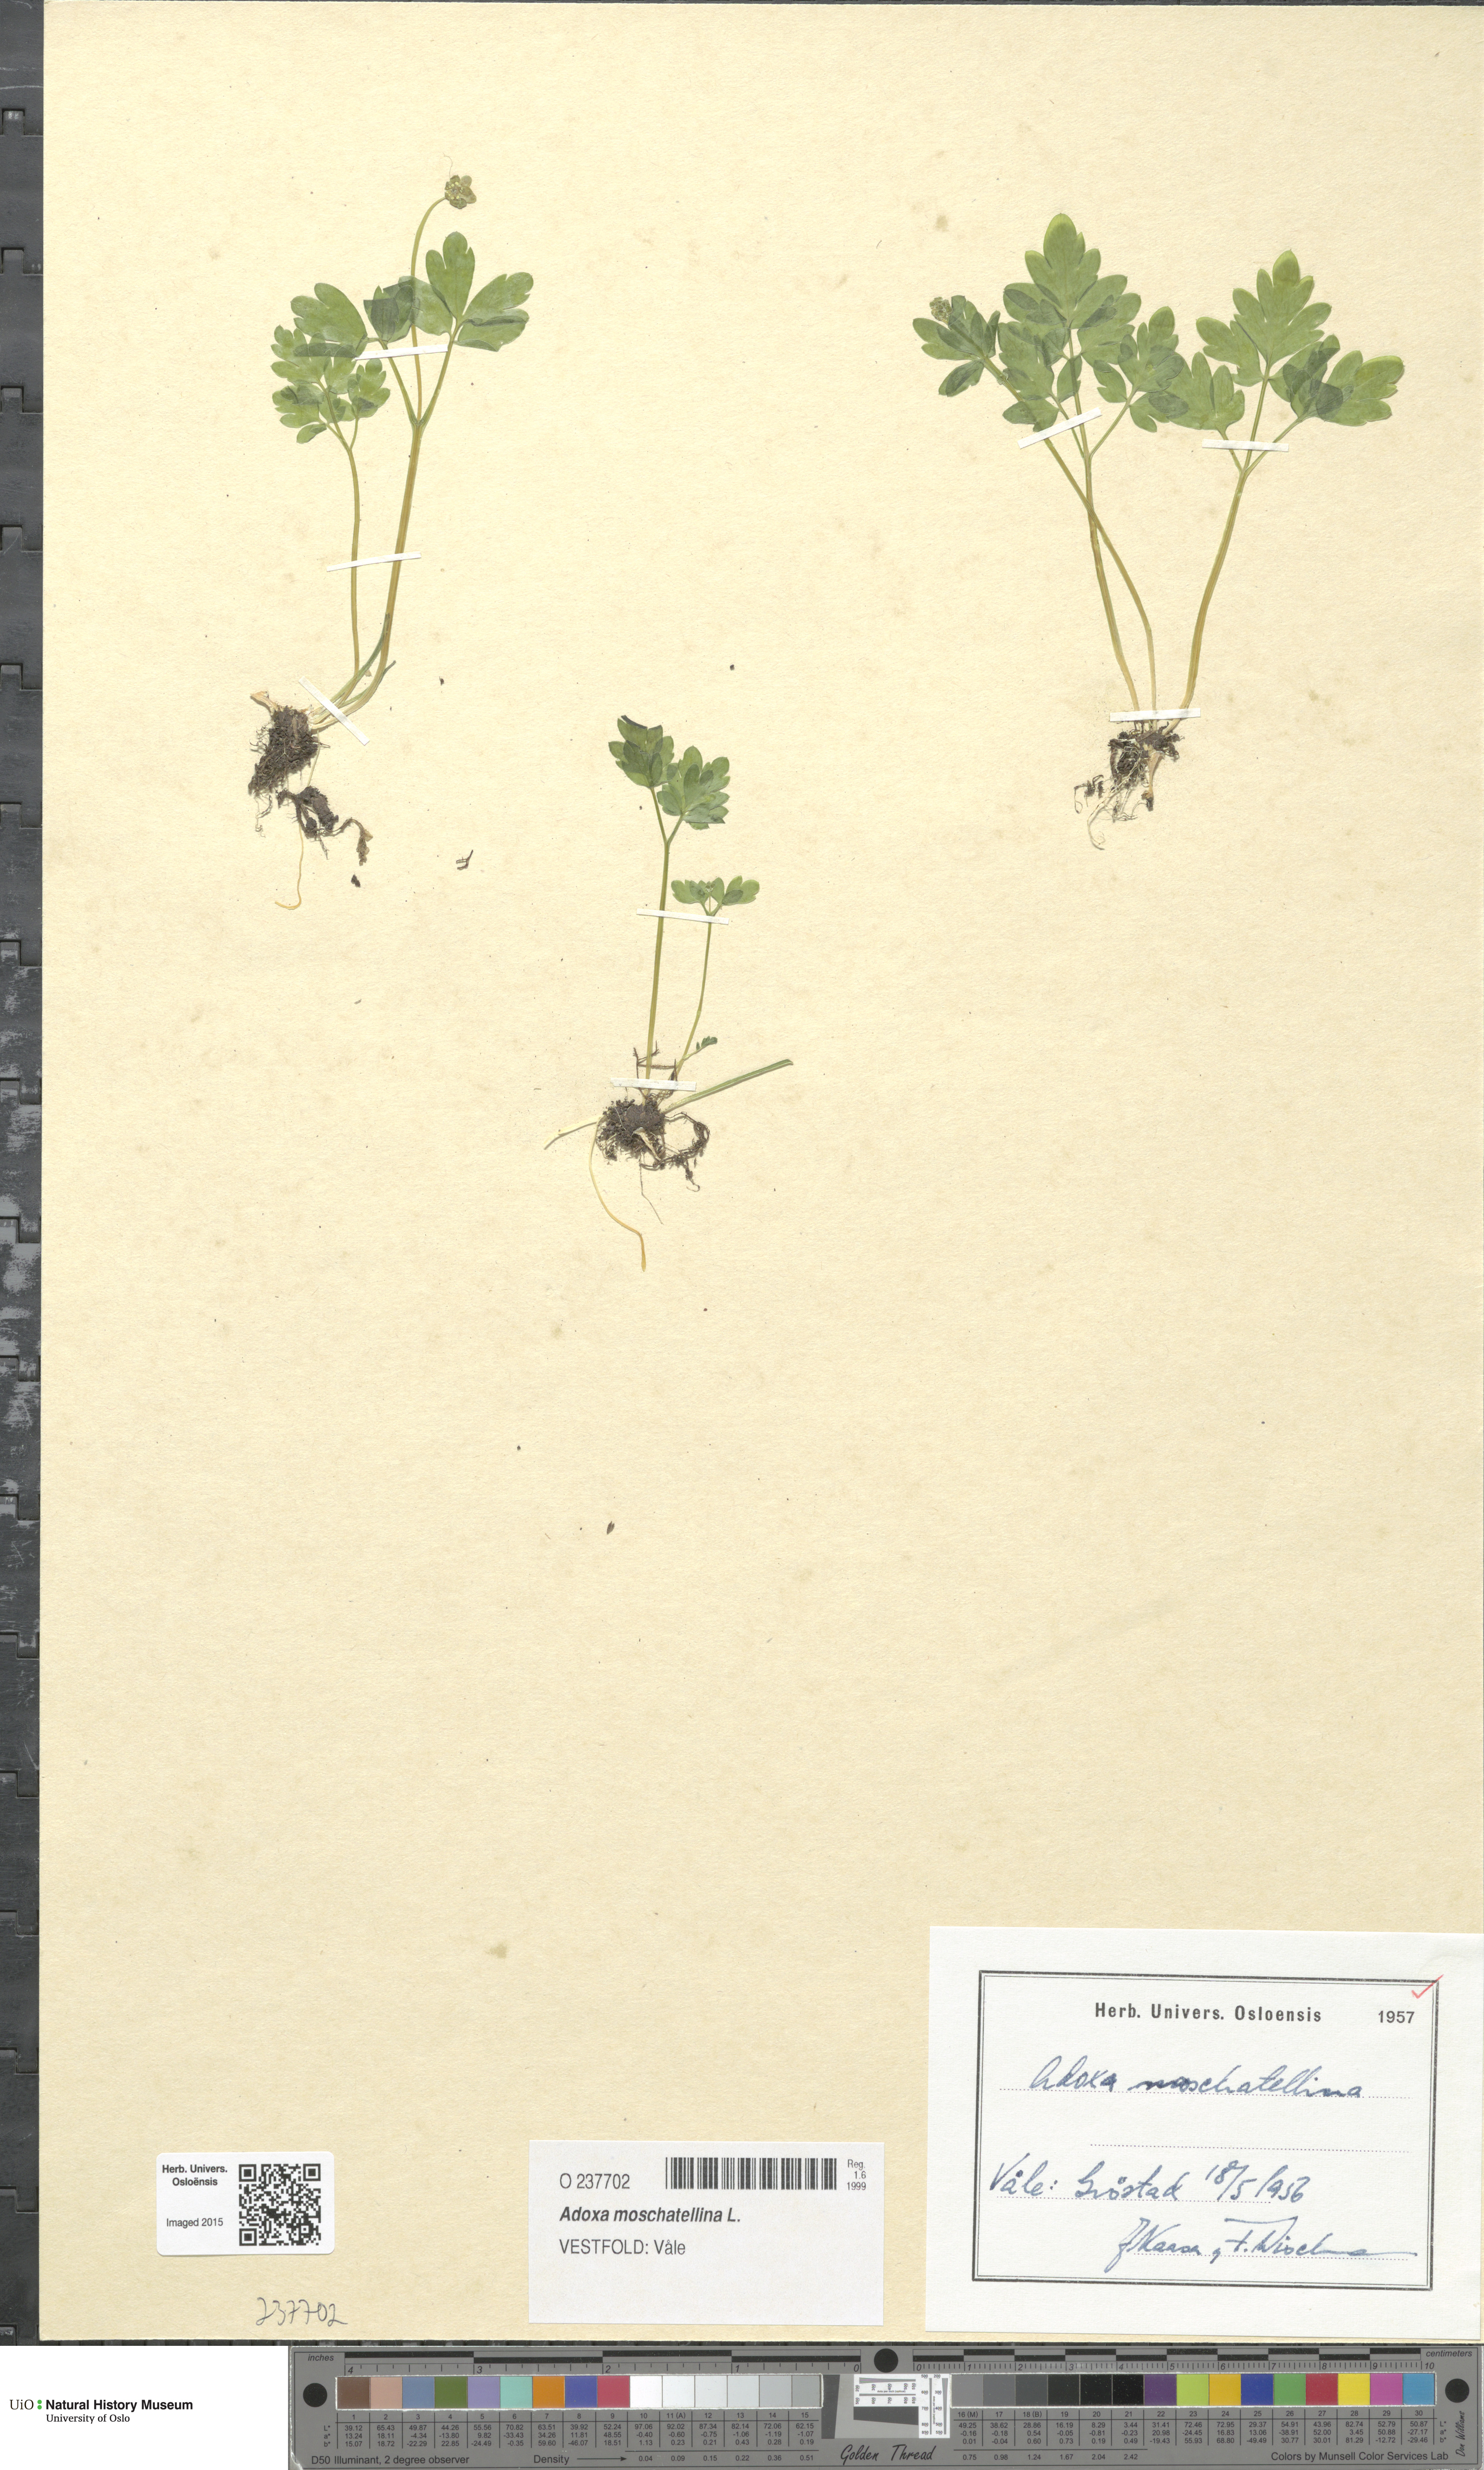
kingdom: Plantae
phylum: Tracheophyta
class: Magnoliopsida
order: Dipsacales
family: Viburnaceae
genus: Adoxa
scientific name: Adoxa moschatellina
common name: Moschatel
